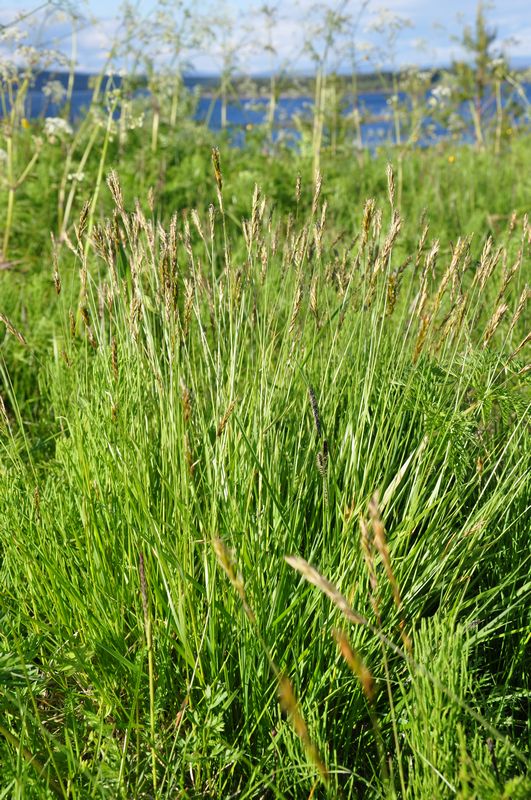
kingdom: Plantae
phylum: Tracheophyta
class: Liliopsida
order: Poales
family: Poaceae
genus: Anthoxanthum
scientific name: Anthoxanthum nipponicum
